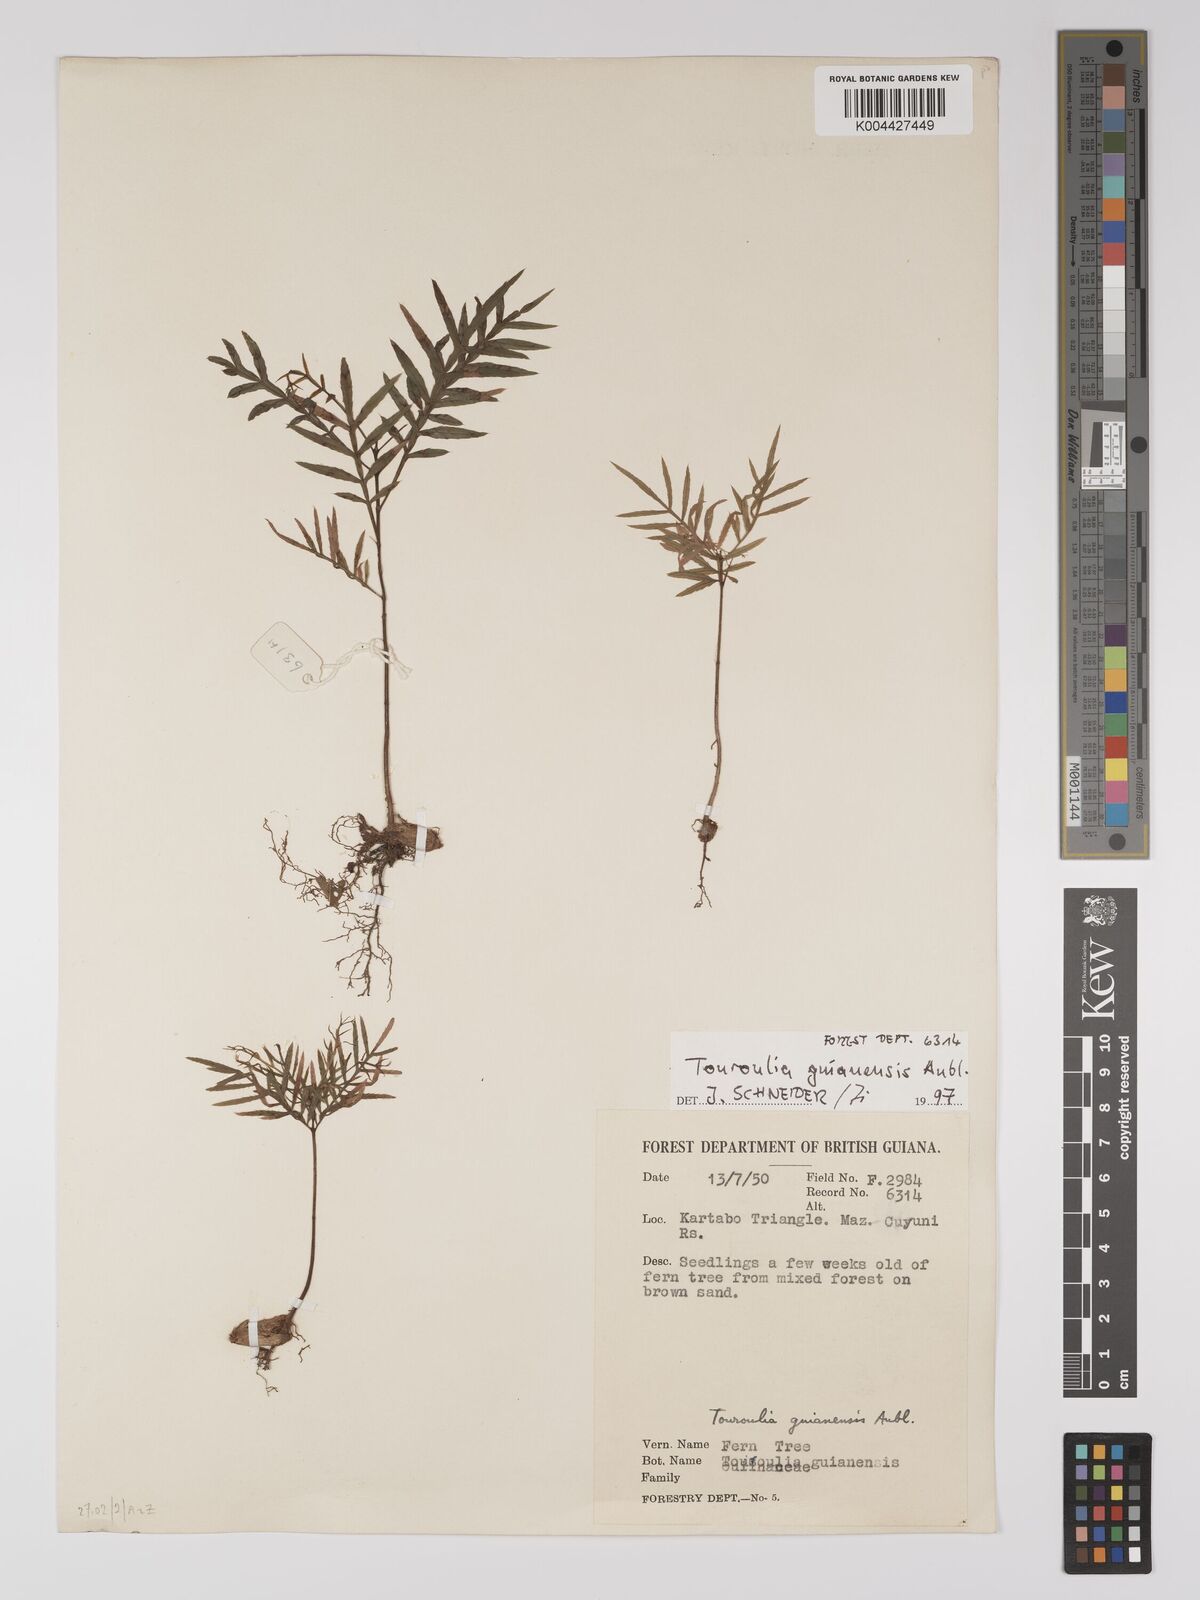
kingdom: Plantae
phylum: Tracheophyta
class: Magnoliopsida
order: Malpighiales
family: Quiinaceae
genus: Touroulia
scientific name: Touroulia guianensis
